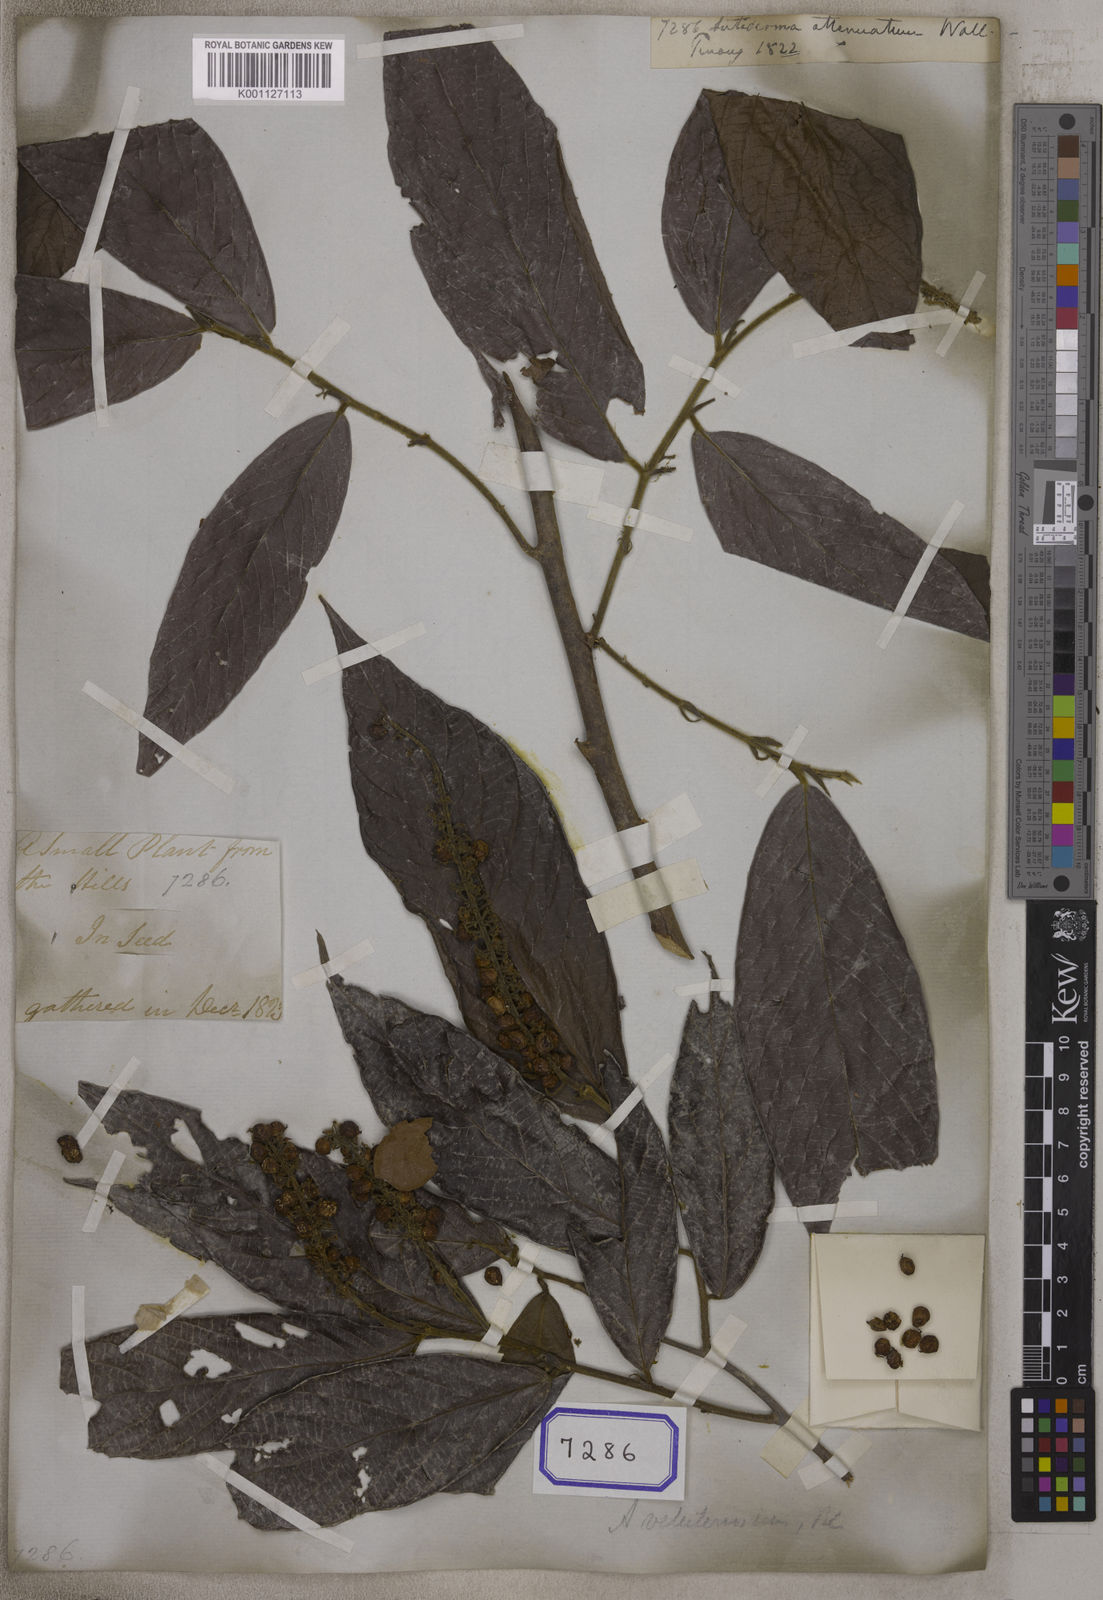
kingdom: Plantae
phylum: Tracheophyta
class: Magnoliopsida
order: Malpighiales
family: Phyllanthaceae
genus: Antidesma
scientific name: Antidesma
